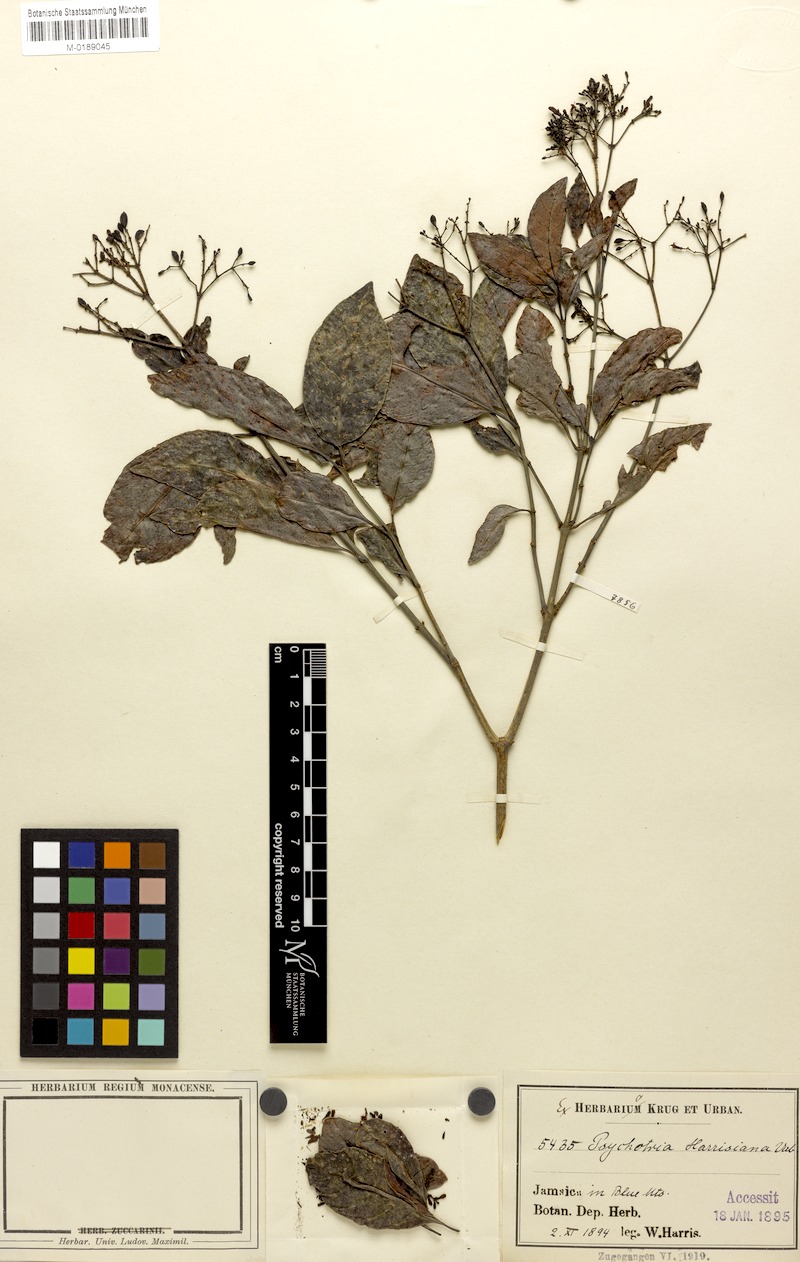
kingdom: Plantae
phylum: Tracheophyta
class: Magnoliopsida
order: Gentianales
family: Rubiaceae
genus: Psychotria
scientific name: Psychotria sloanei
